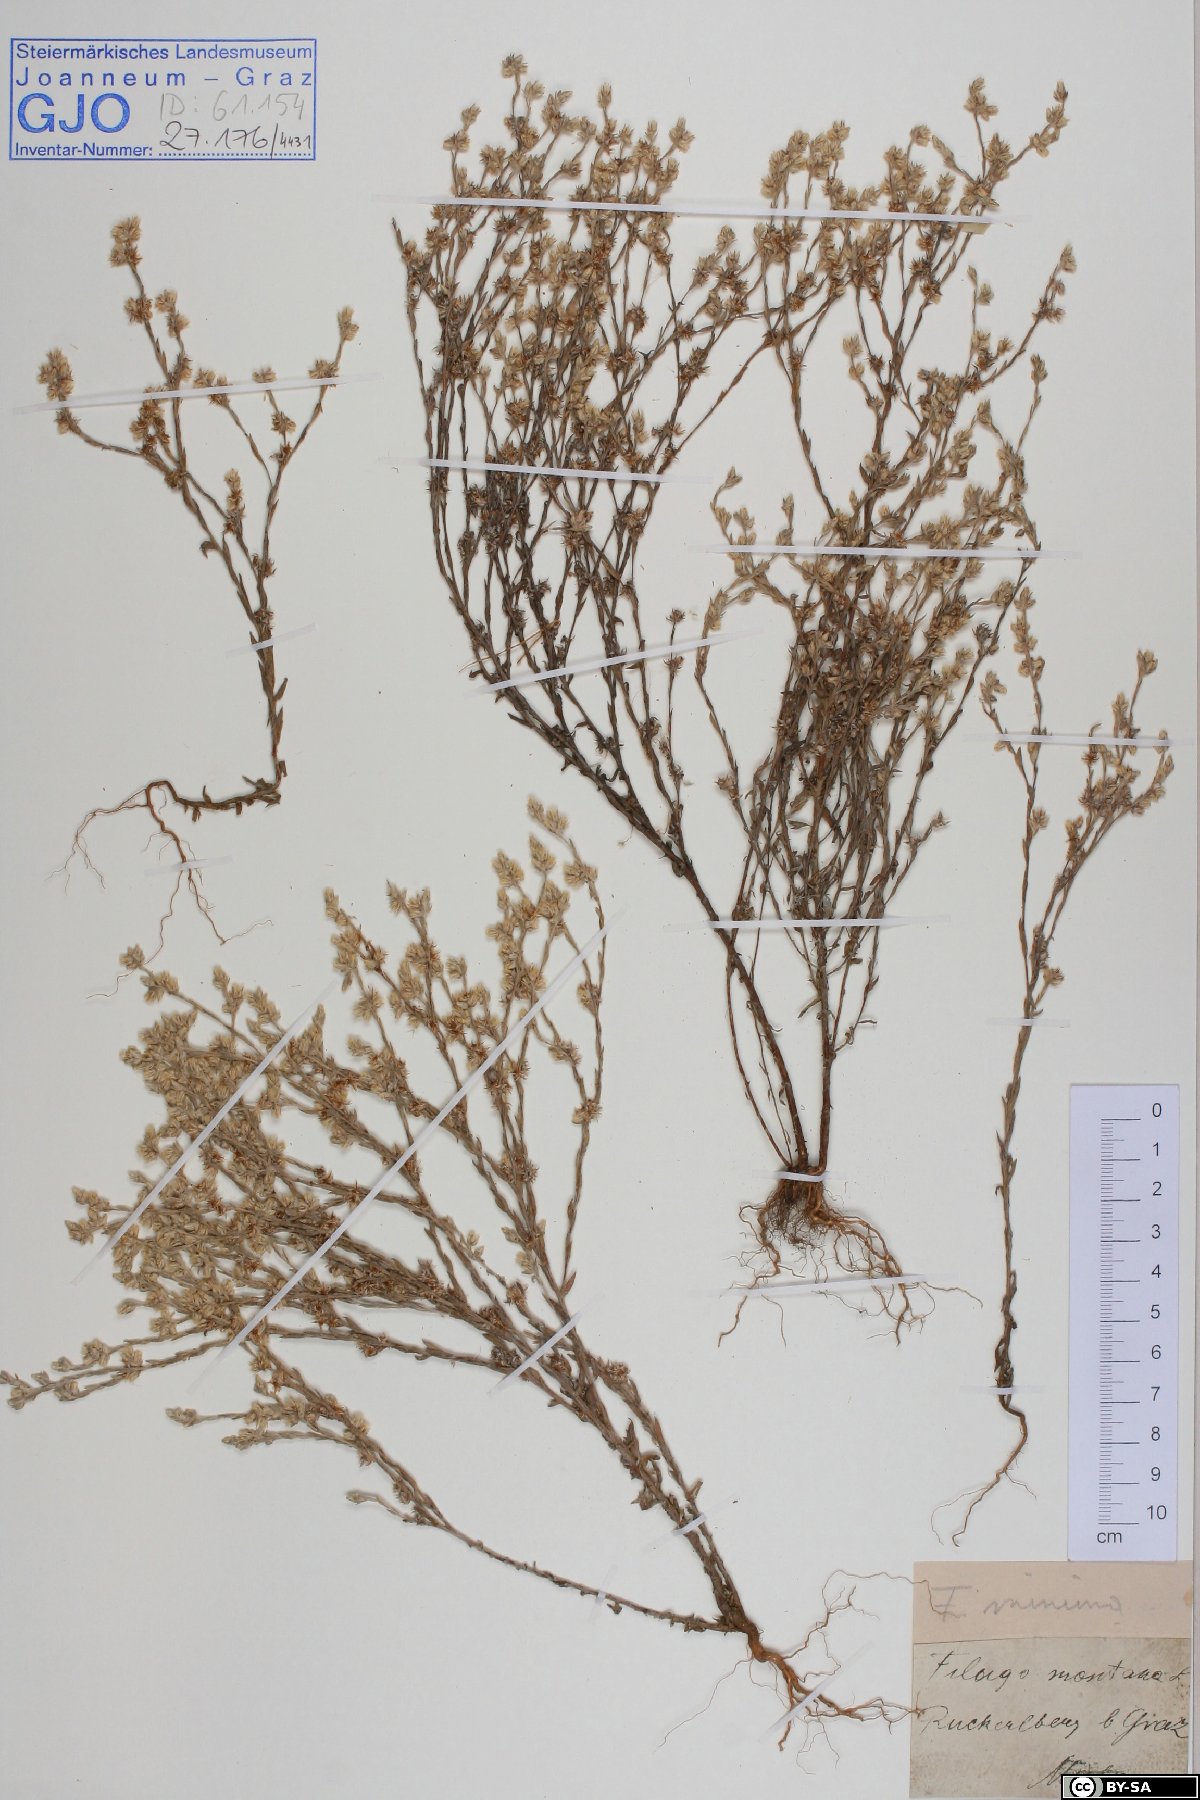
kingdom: Plantae
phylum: Tracheophyta
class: Magnoliopsida
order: Asterales
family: Asteraceae
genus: Logfia
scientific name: Logfia minima
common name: Little cottonrose
